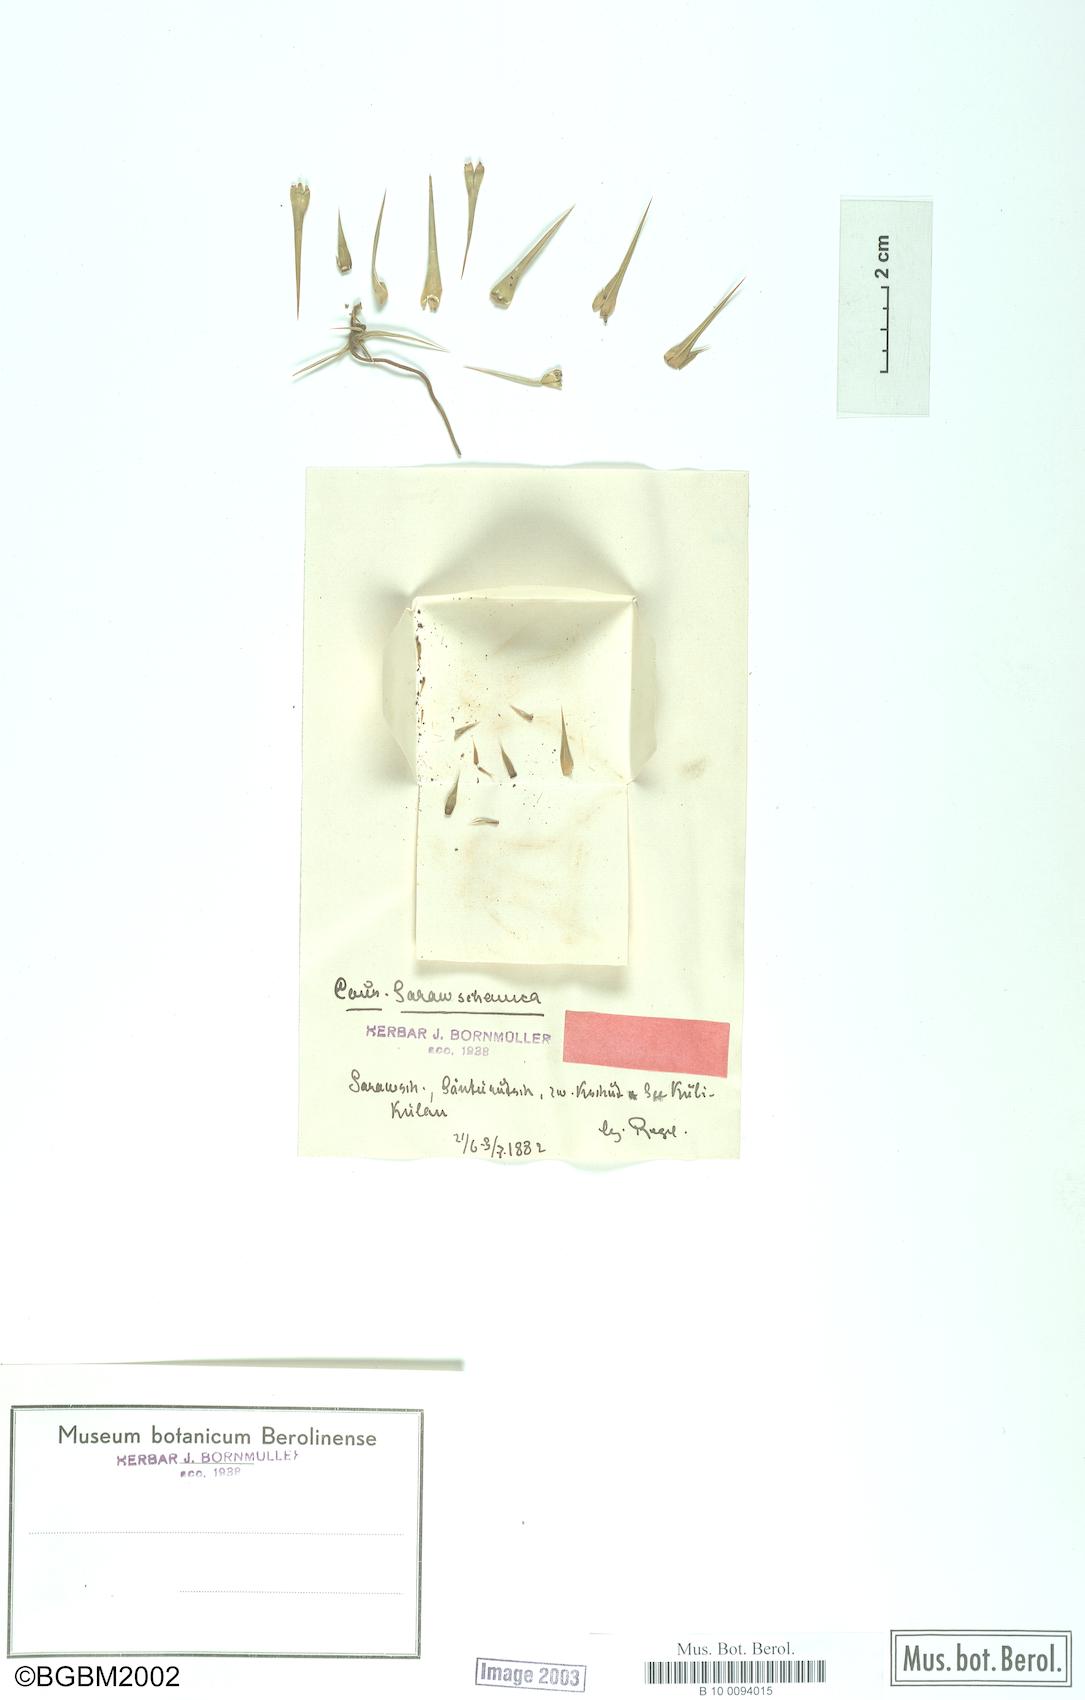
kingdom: Plantae
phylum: Tracheophyta
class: Magnoliopsida
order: Asterales
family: Asteraceae
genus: Cousinia
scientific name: Cousinia sarawschanica
